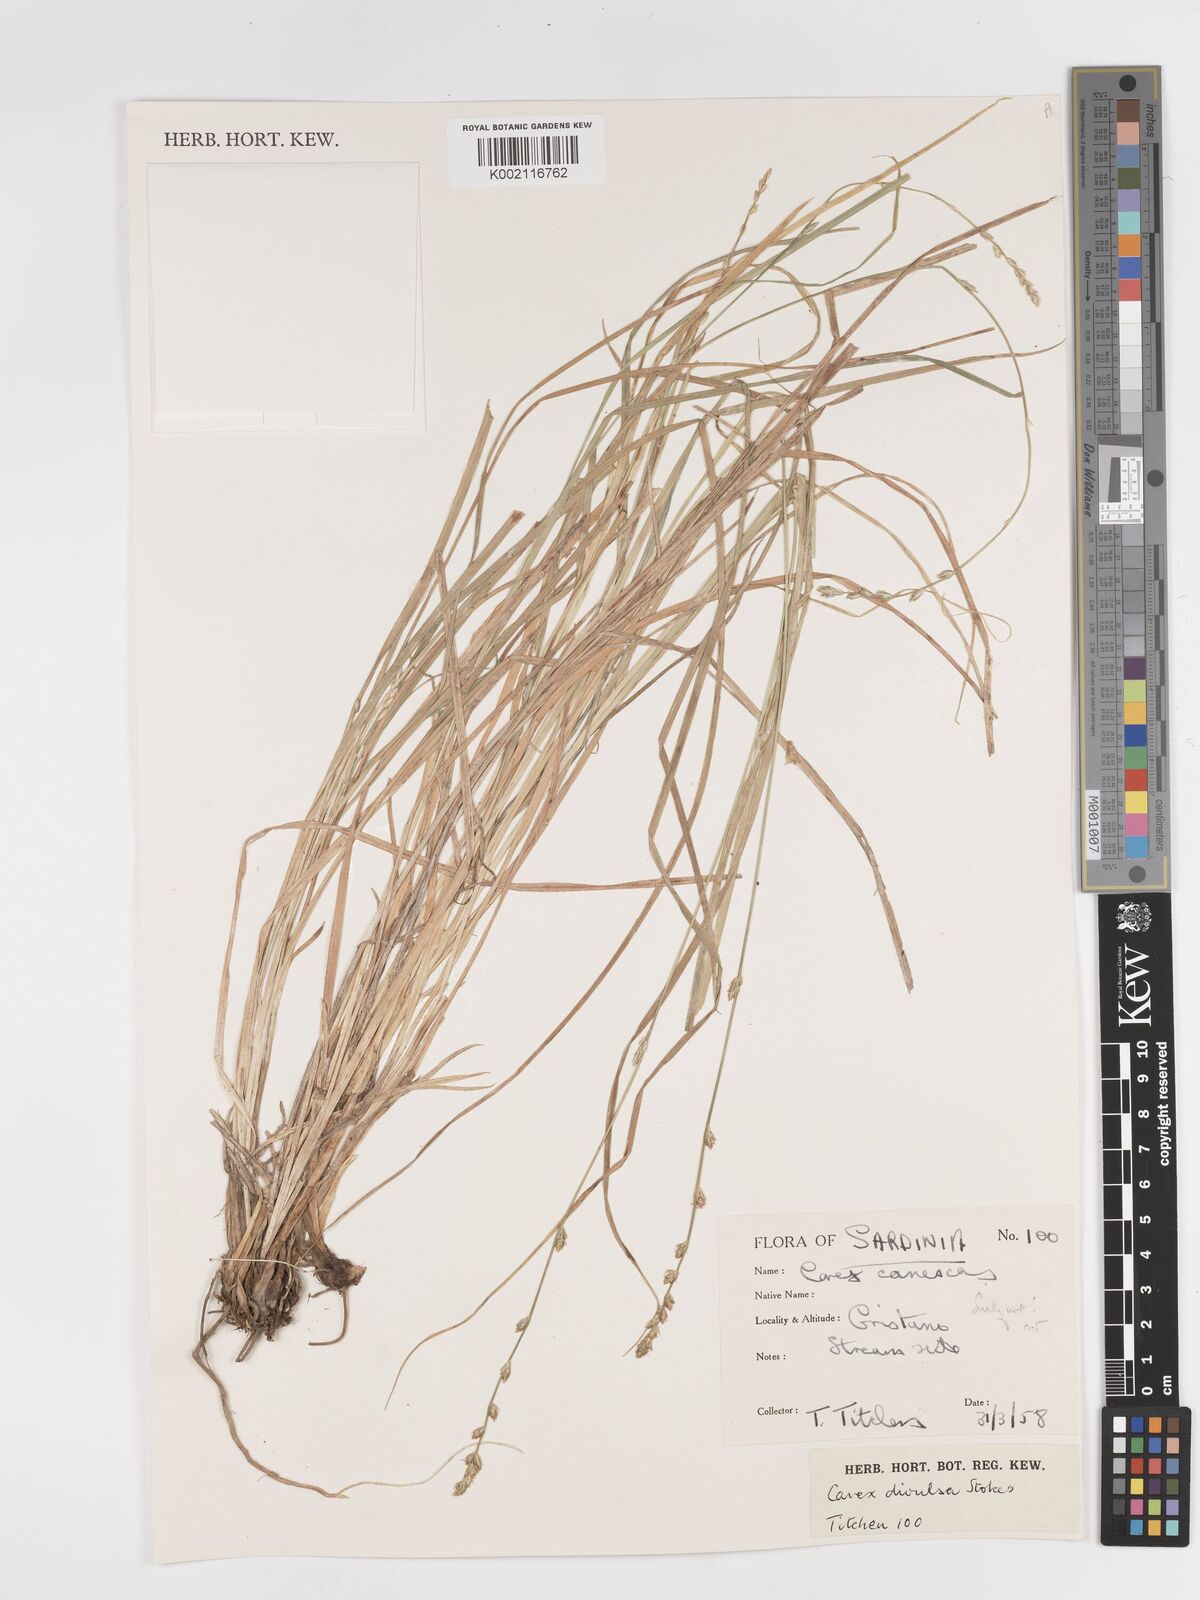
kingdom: Plantae
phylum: Tracheophyta
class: Liliopsida
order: Poales
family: Cyperaceae
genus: Carex
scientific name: Carex divulsa
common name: Grassland sedge
